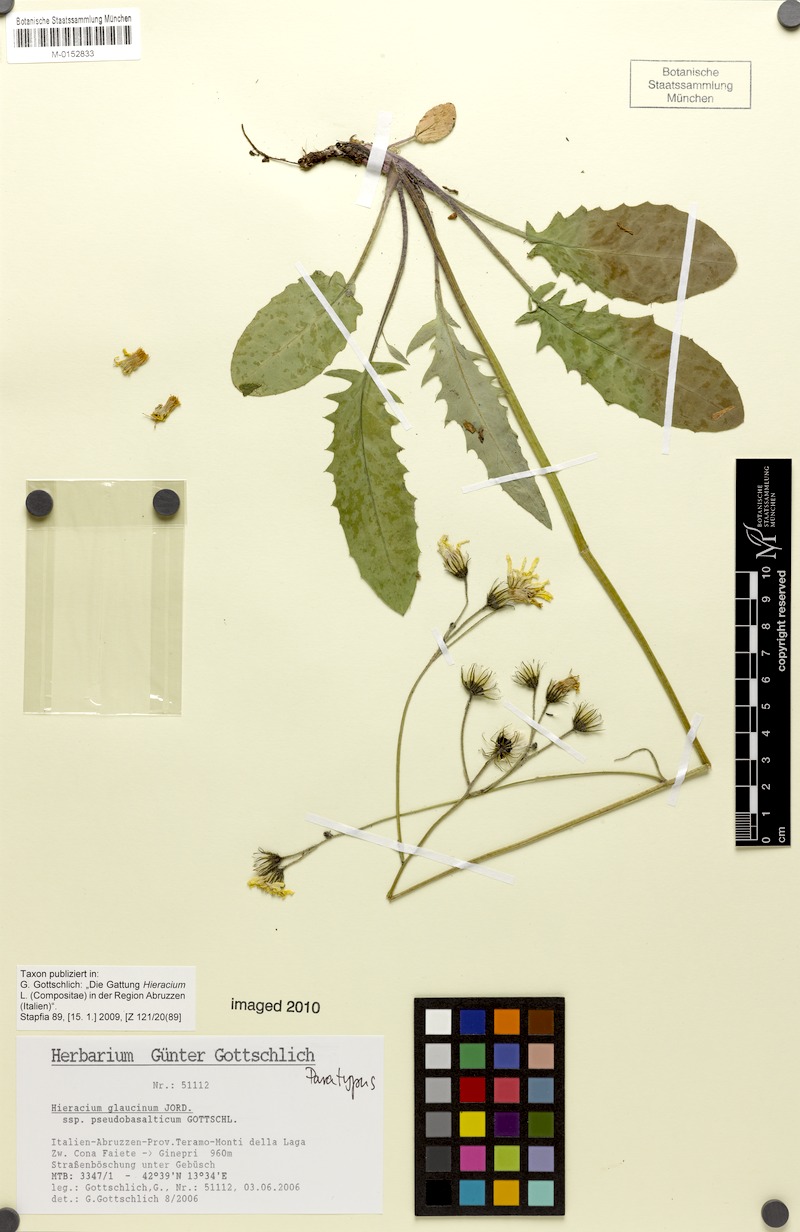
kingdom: Plantae
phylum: Tracheophyta
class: Magnoliopsida
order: Asterales
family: Asteraceae
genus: Hieracium
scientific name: Hieracium glaucinum
